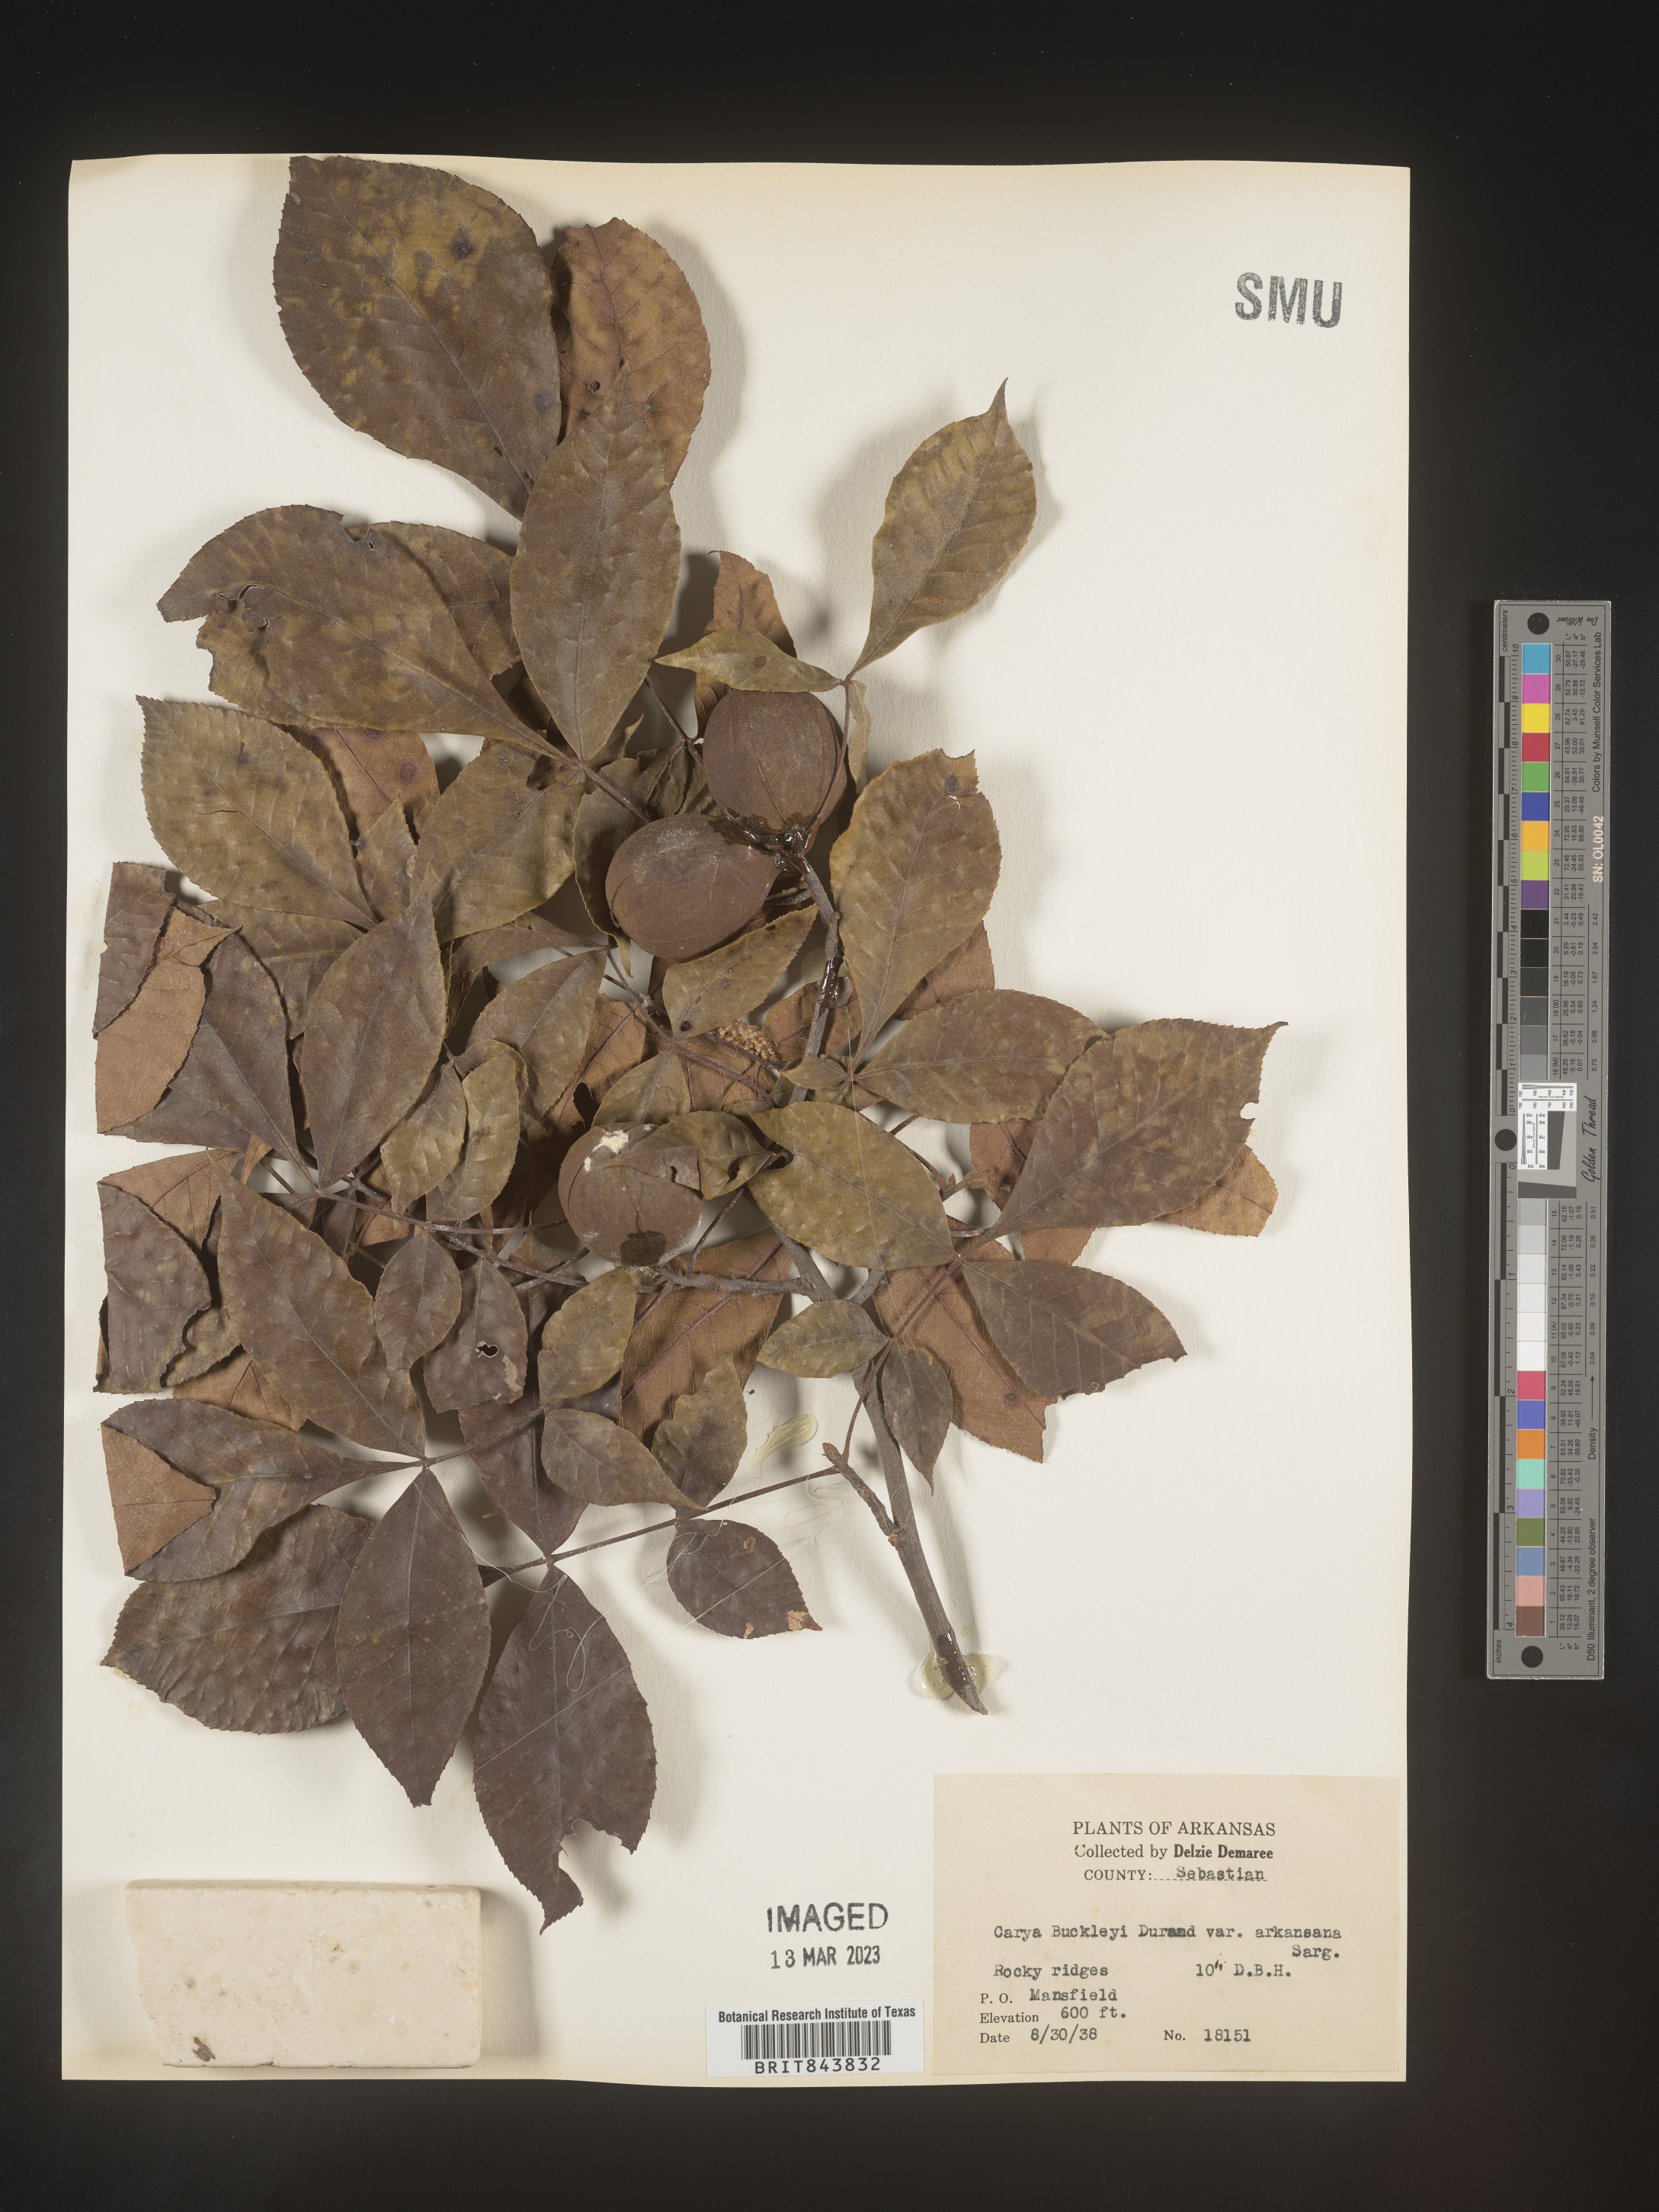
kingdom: Plantae
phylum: Tracheophyta
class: Magnoliopsida
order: Fagales
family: Juglandaceae
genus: Carya
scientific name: Carya texana
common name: Black hickory
